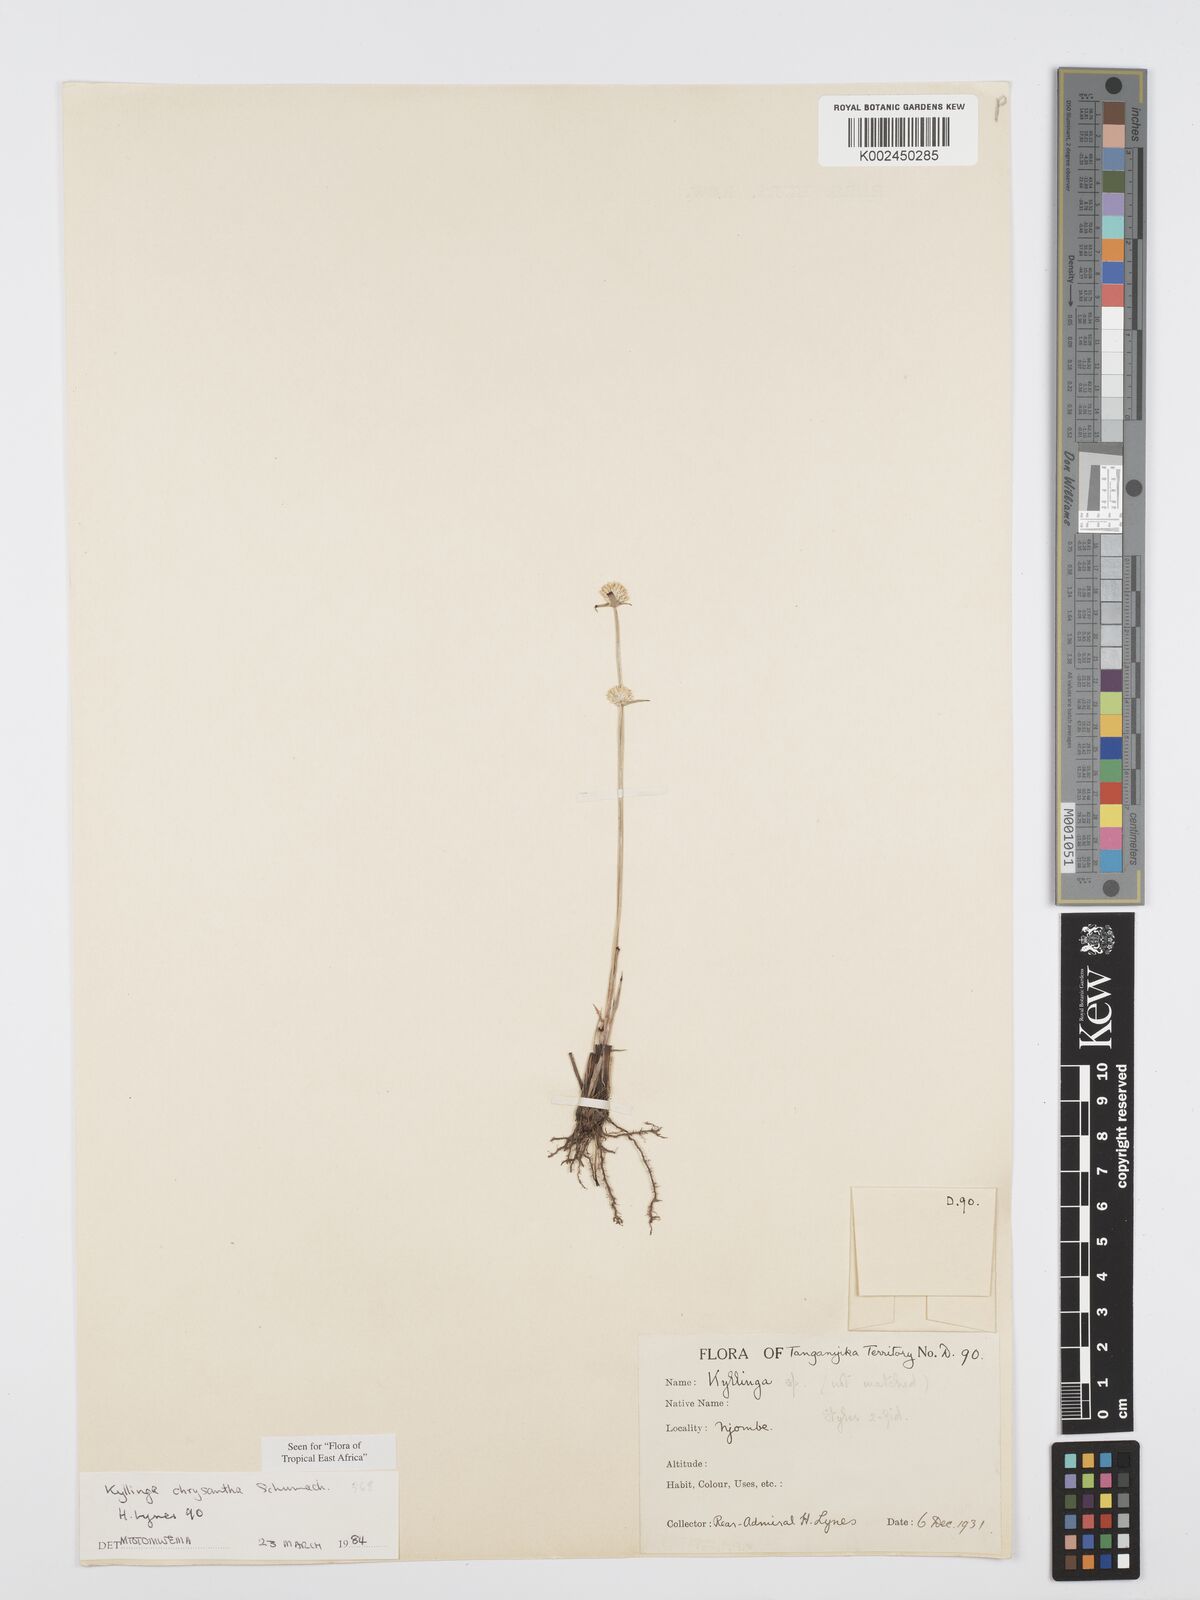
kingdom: Plantae
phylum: Tracheophyta
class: Liliopsida
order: Poales
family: Cyperaceae
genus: Cyperus
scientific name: Cyperus
